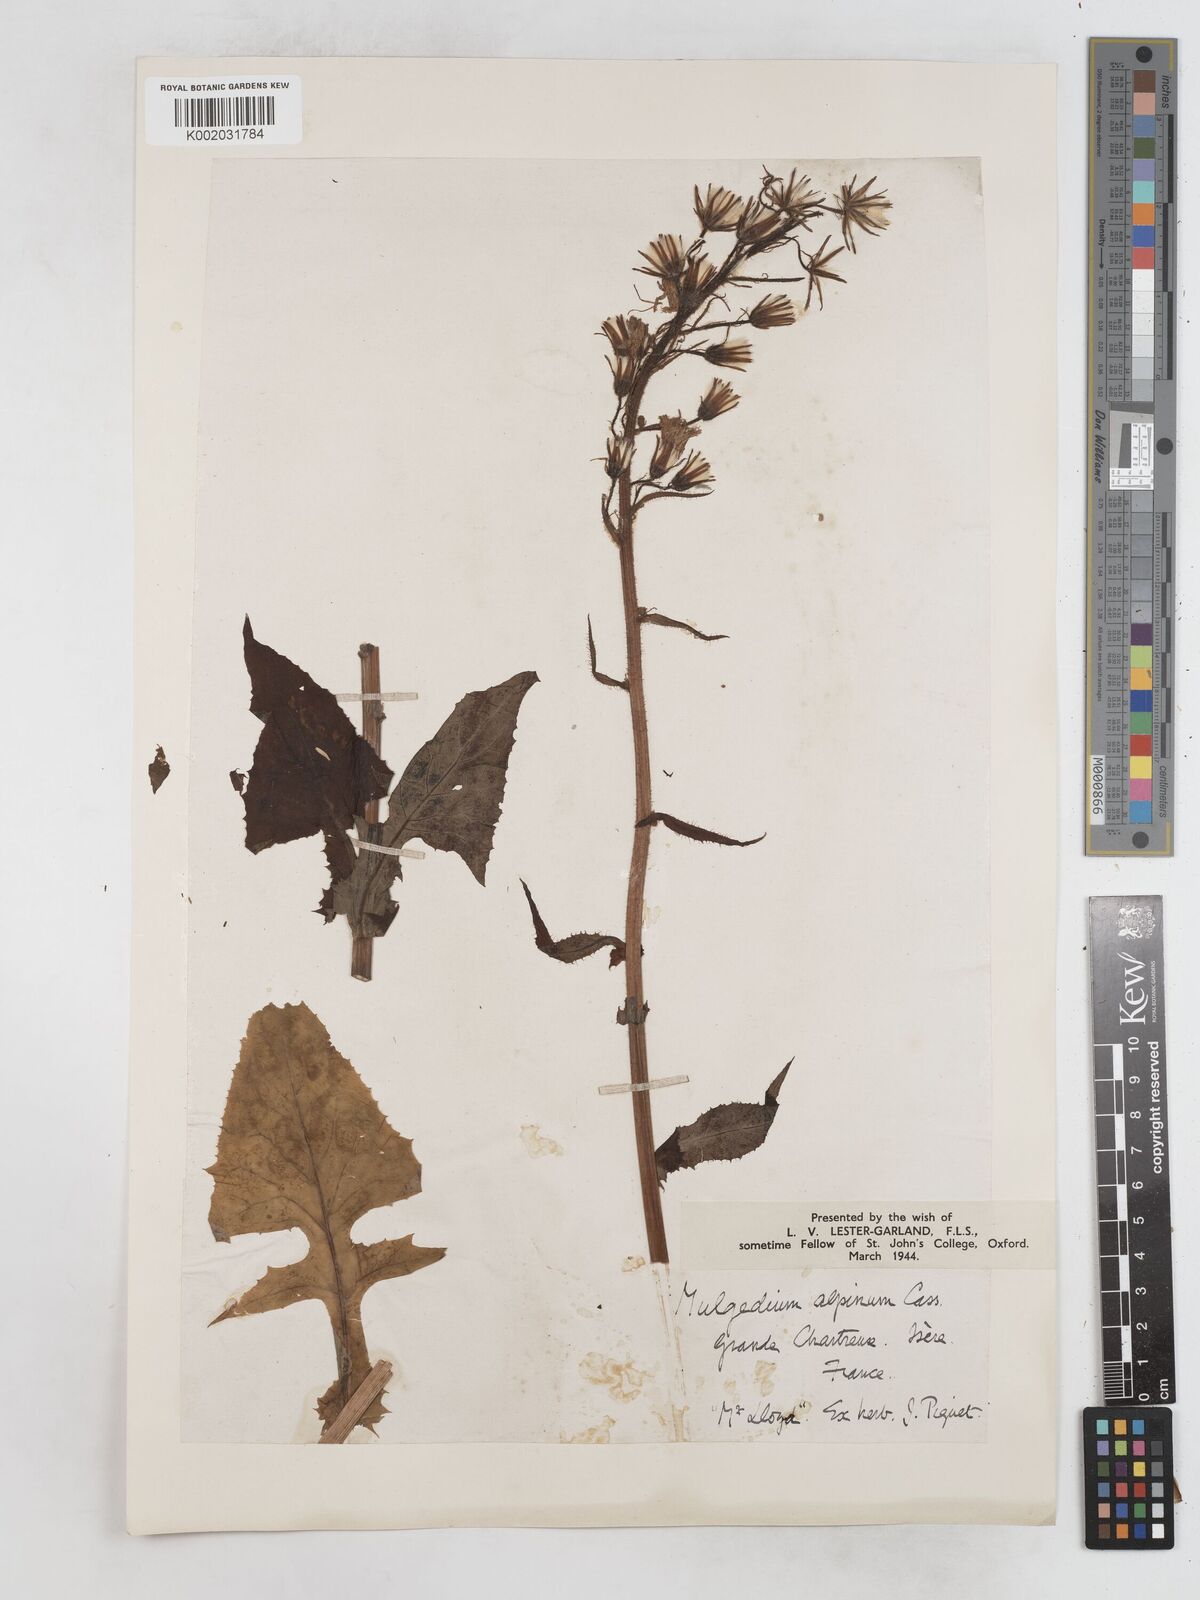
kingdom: Plantae
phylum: Tracheophyta
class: Magnoliopsida
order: Asterales
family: Asteraceae
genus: Cicerbita
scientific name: Cicerbita alpina
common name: Alpine blue-sow-thistle
